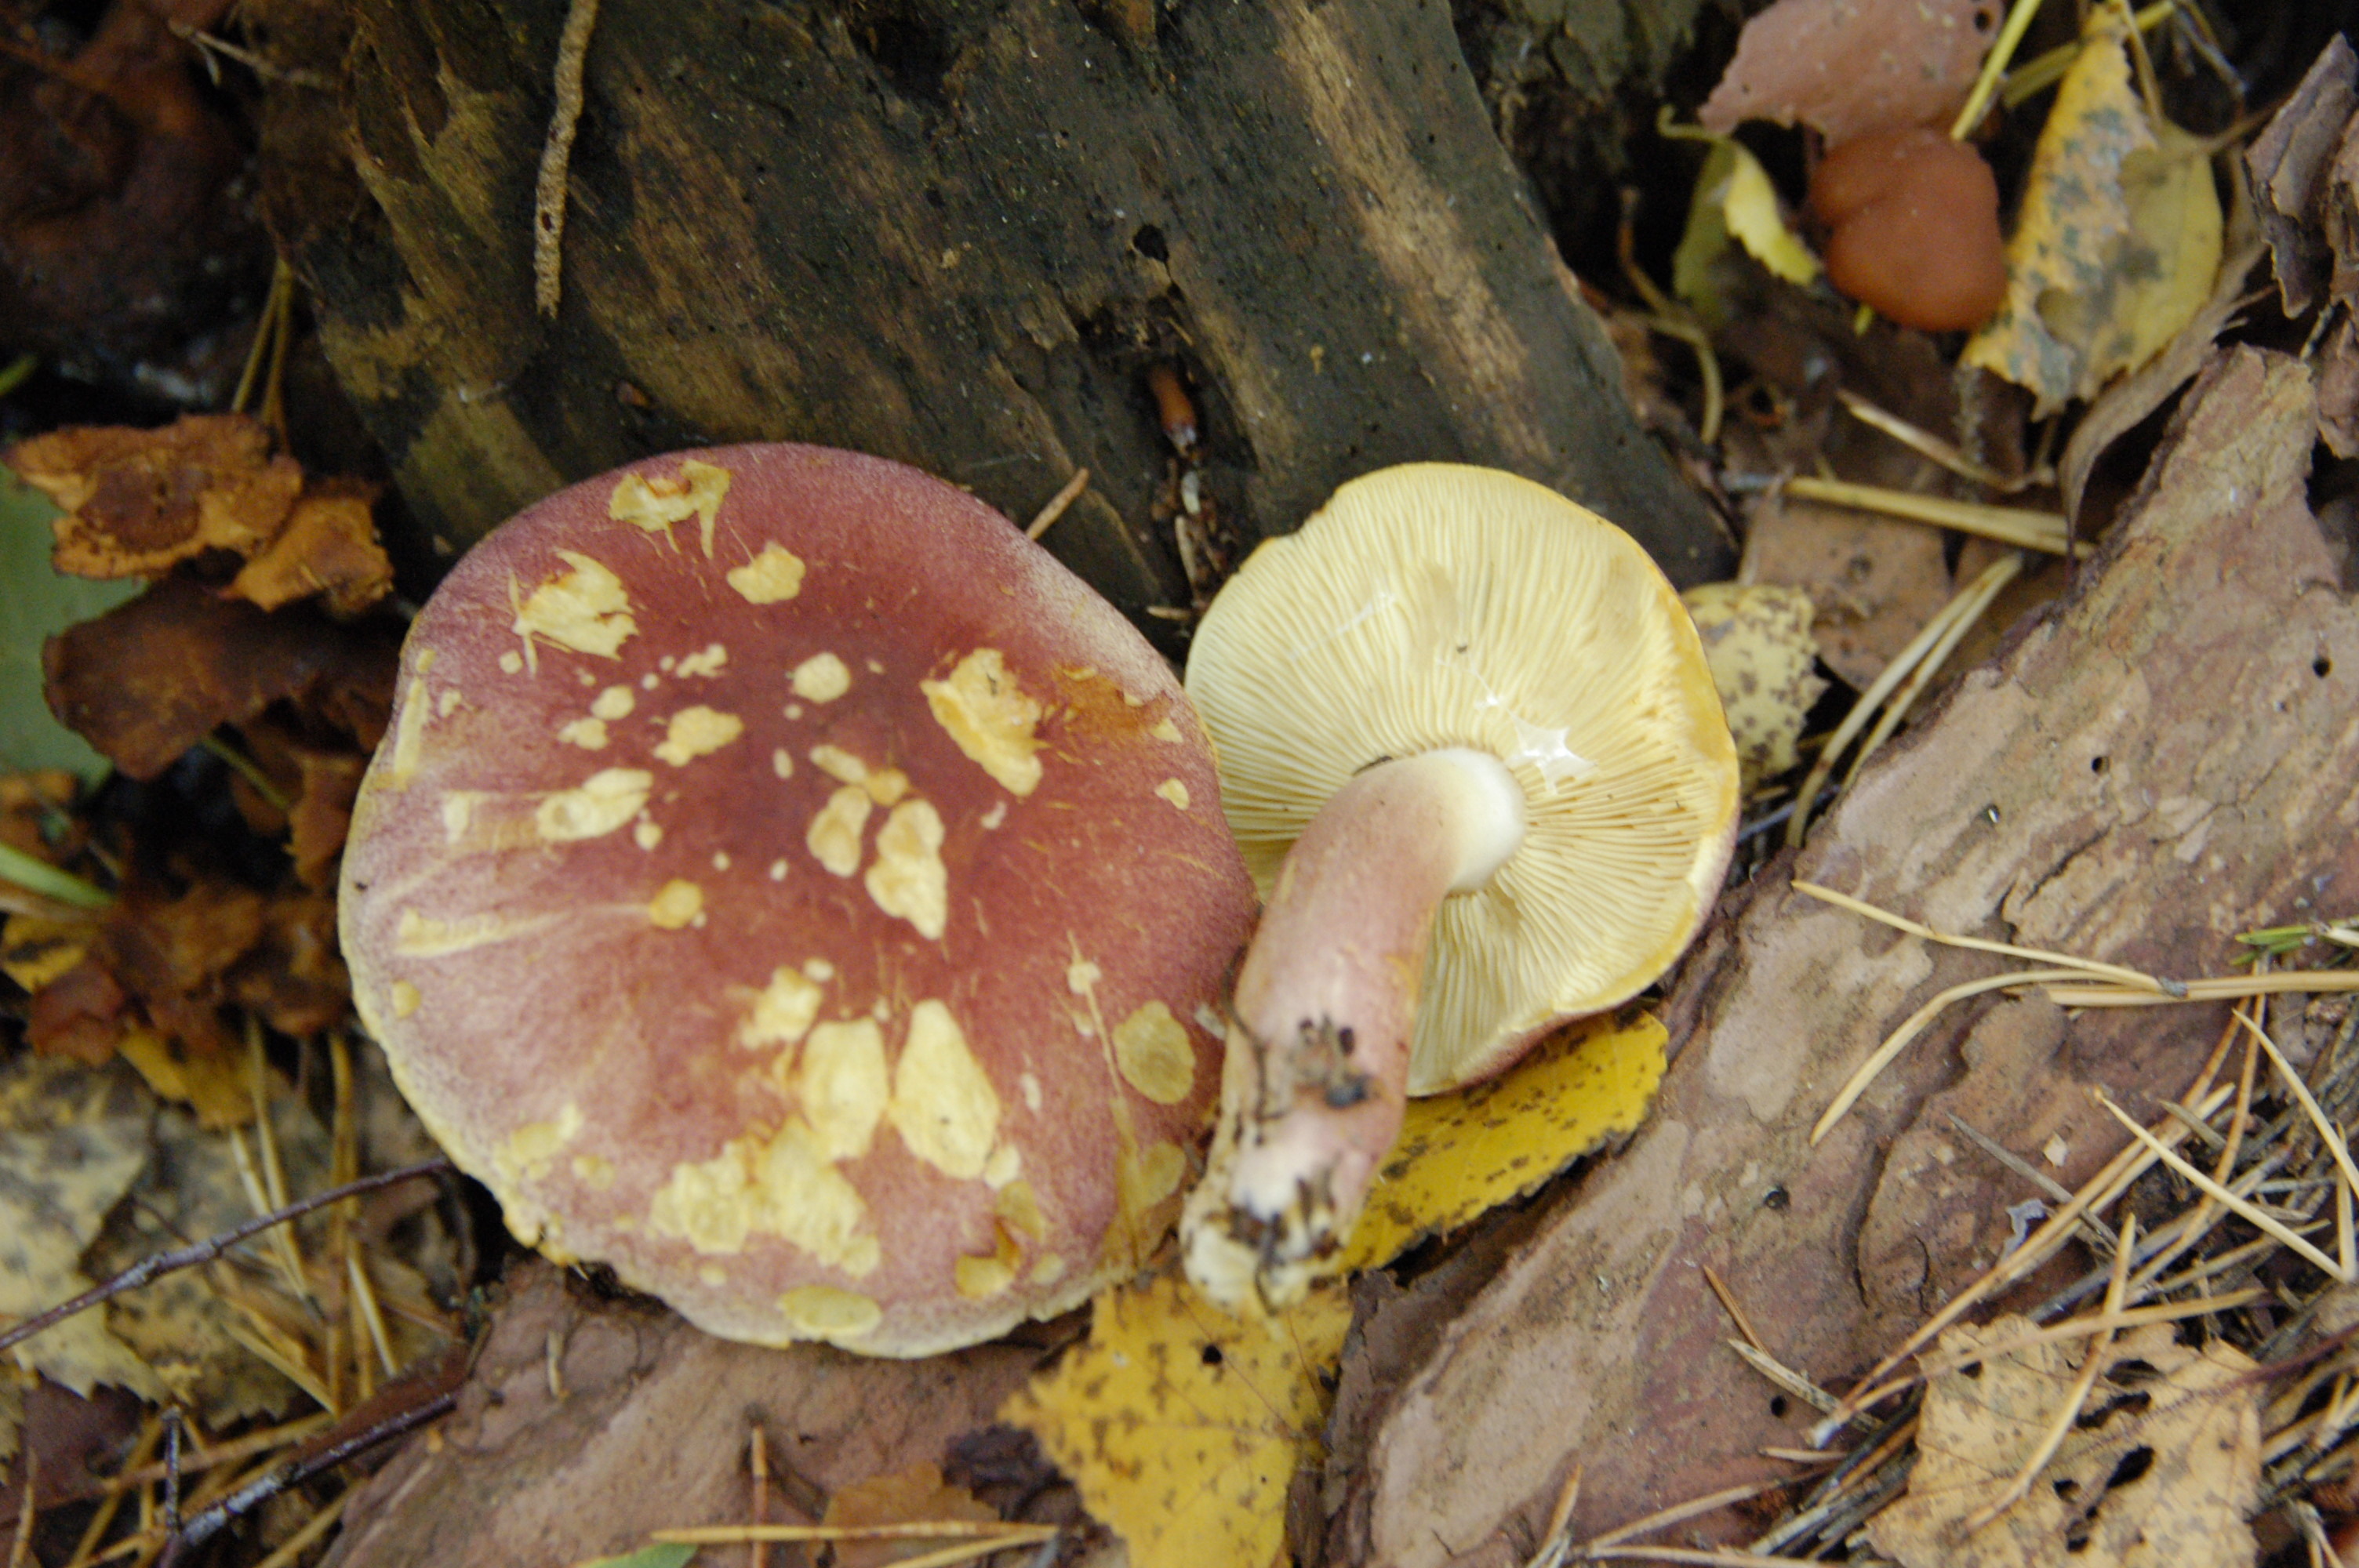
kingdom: Fungi
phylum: Basidiomycota
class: Agaricomycetes
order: Agaricales
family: Tricholomataceae
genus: Tricholomopsis
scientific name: Tricholomopsis rutilans
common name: Plums and custard
